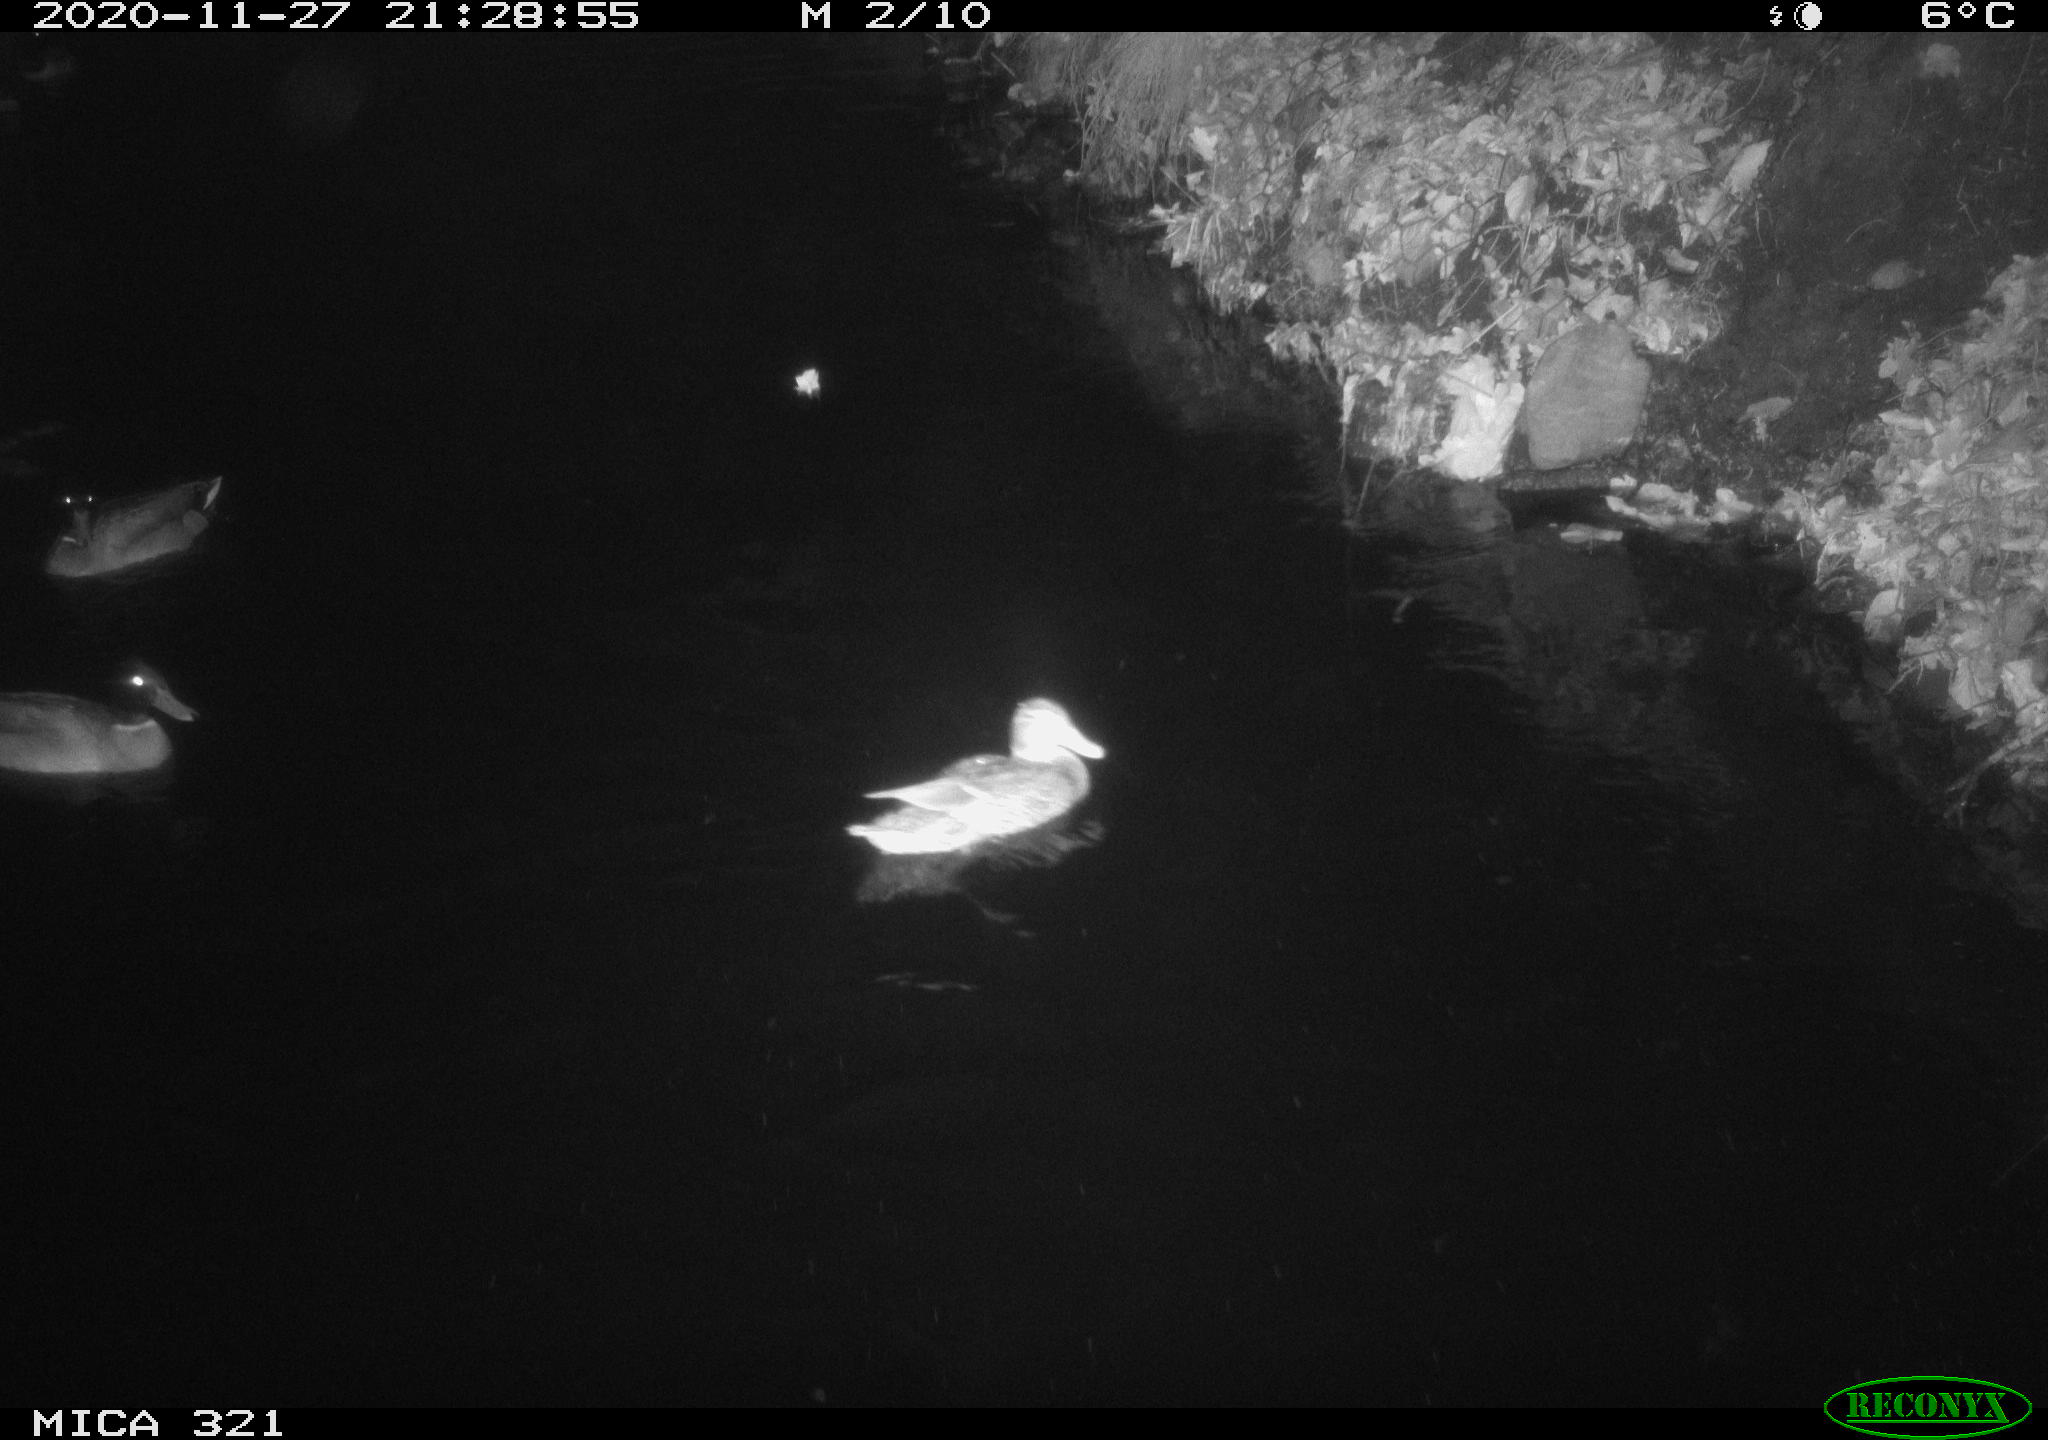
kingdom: Animalia
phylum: Chordata
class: Aves
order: Anseriformes
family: Anatidae
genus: Anas
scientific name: Anas platyrhynchos
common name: Mallard
